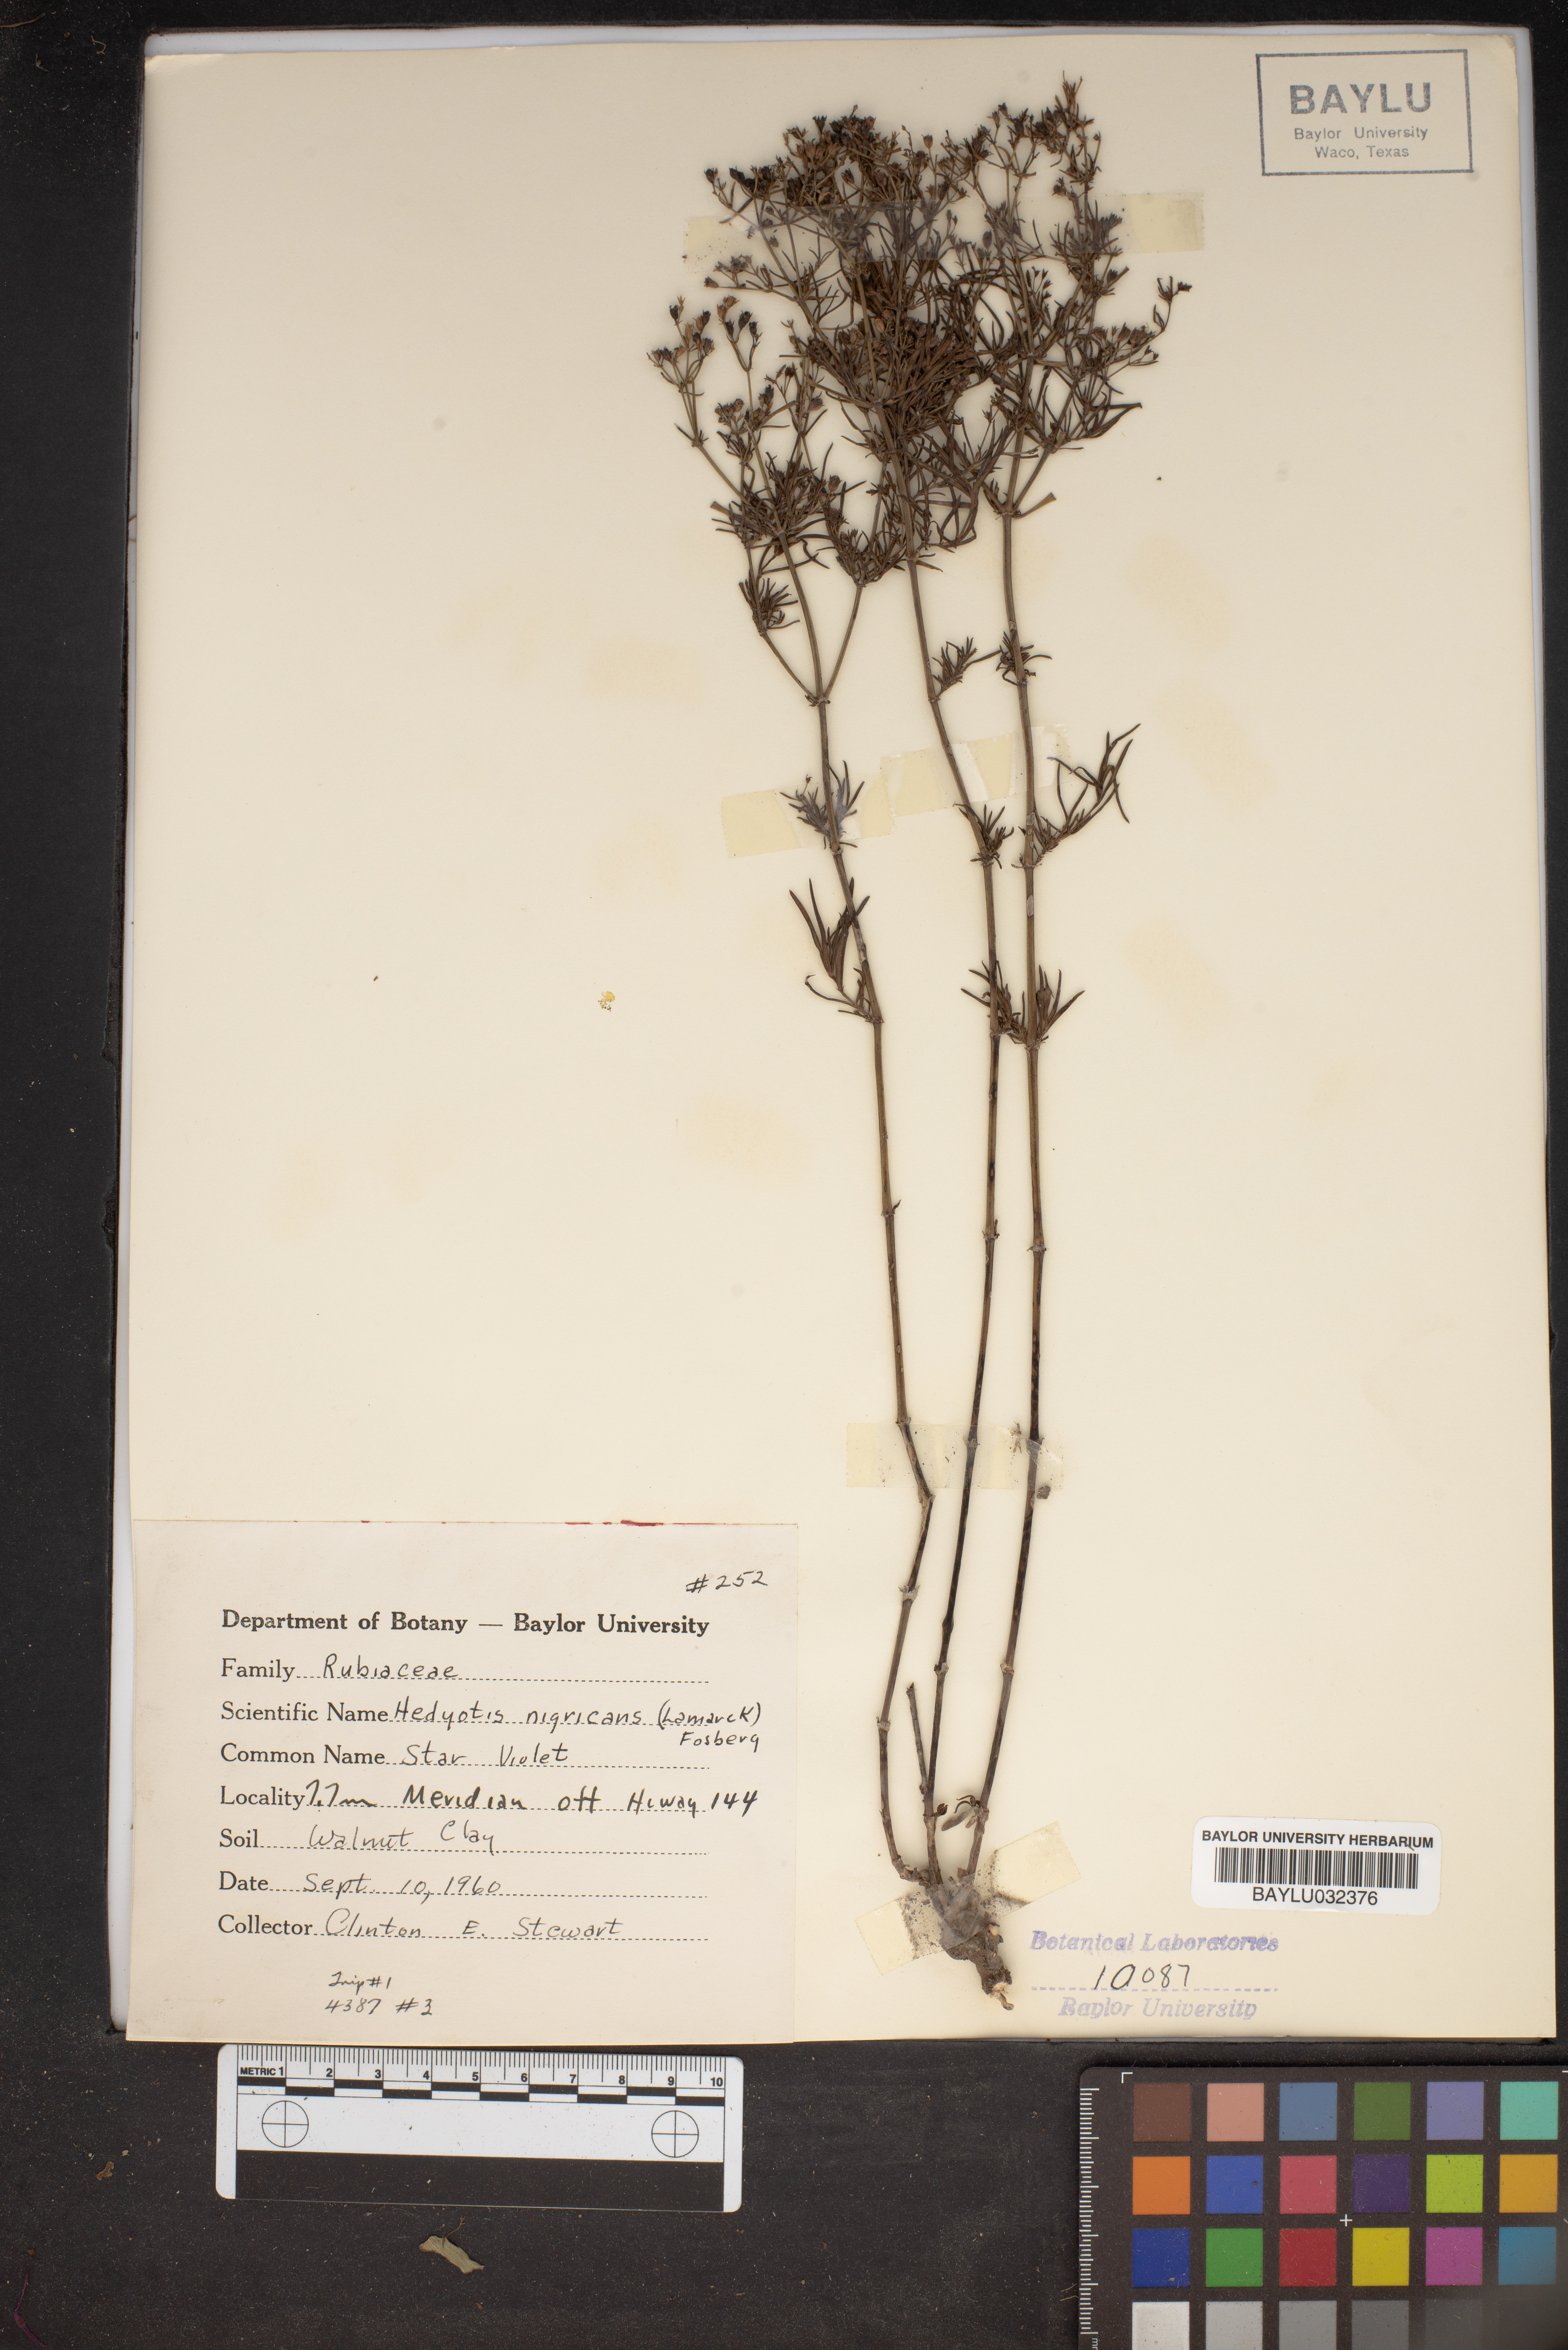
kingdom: Plantae
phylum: Tracheophyta
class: Magnoliopsida
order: Gentianales
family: Rubiaceae
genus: Stenaria
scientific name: Stenaria nigricans
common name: Diamondflowers
